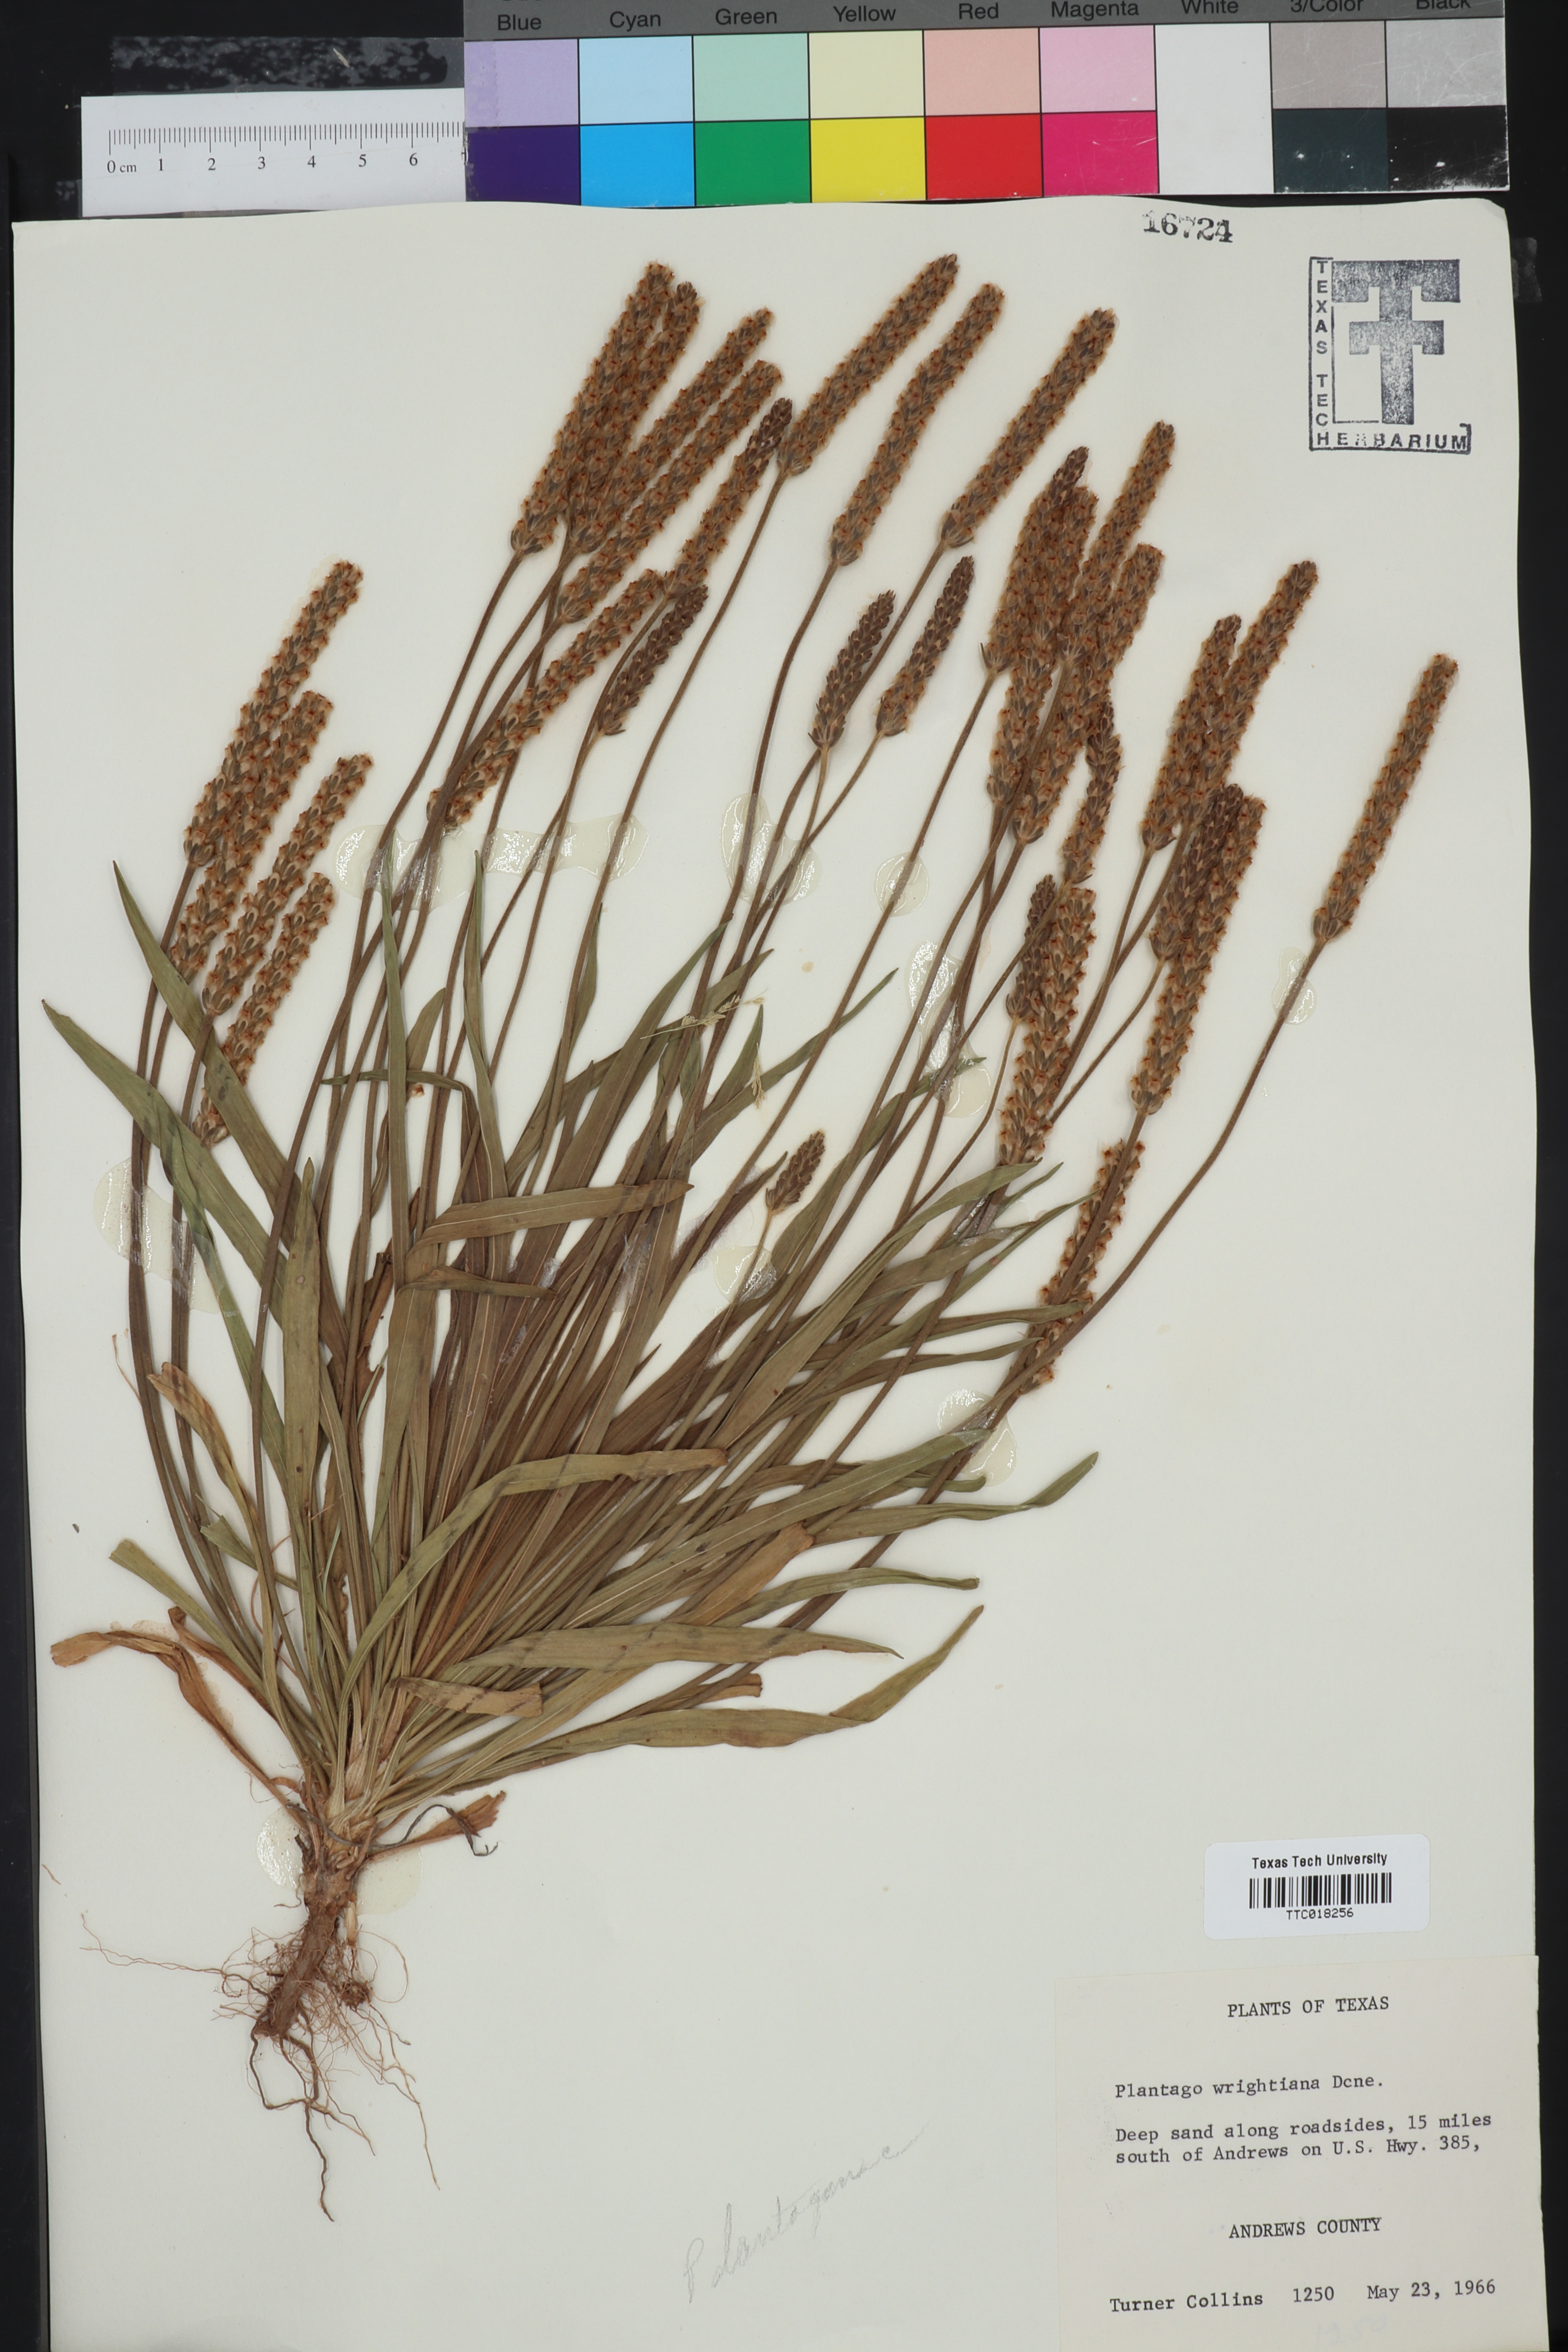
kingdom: Plantae
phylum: Tracheophyta
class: Magnoliopsida
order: Lamiales
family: Plantaginaceae
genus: Plantago
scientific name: Plantago wrightiana
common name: Wright's plantain
